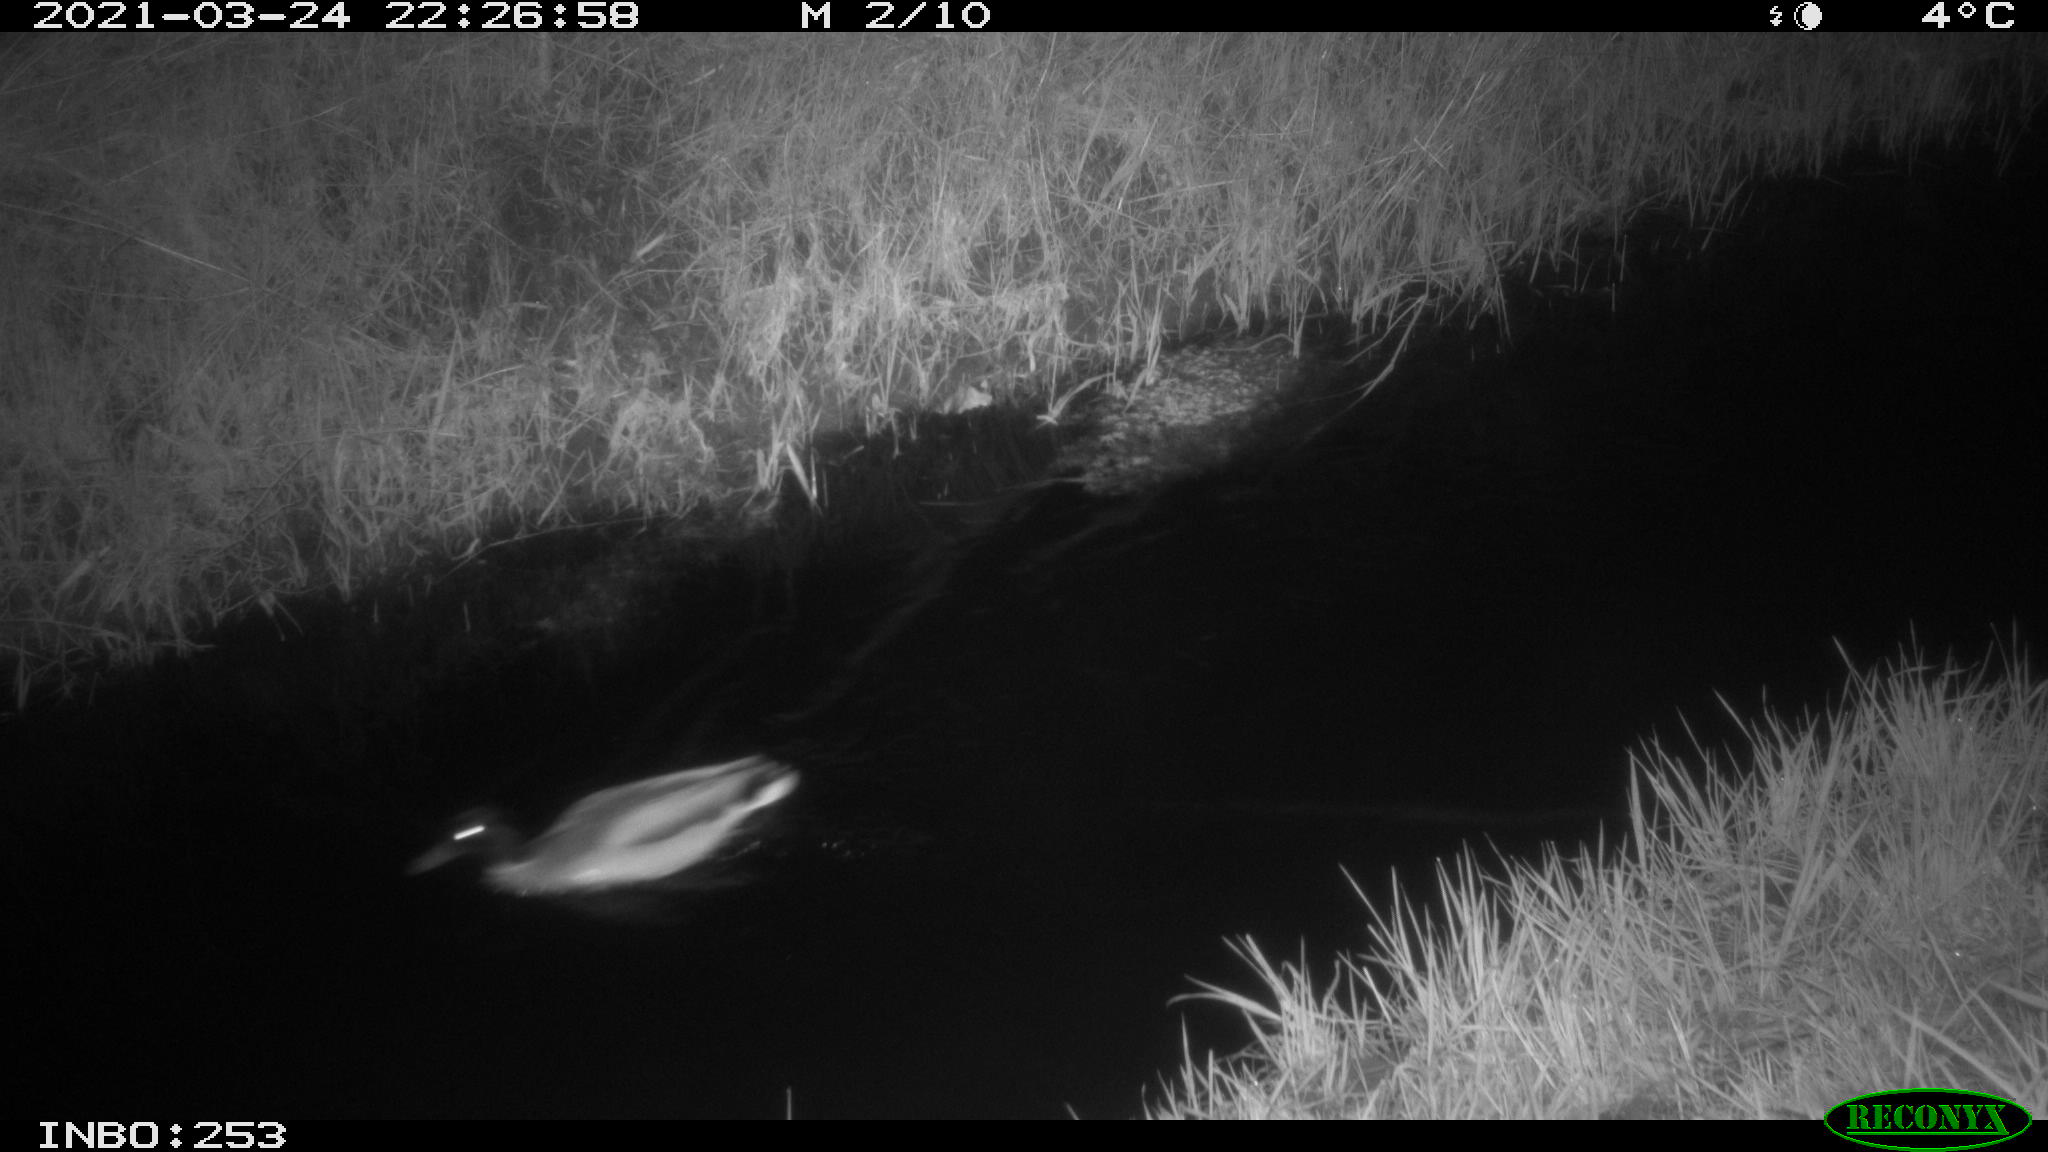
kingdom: Animalia
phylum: Chordata
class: Aves
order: Anseriformes
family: Anatidae
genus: Anas
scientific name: Anas platyrhynchos
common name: Mallard
